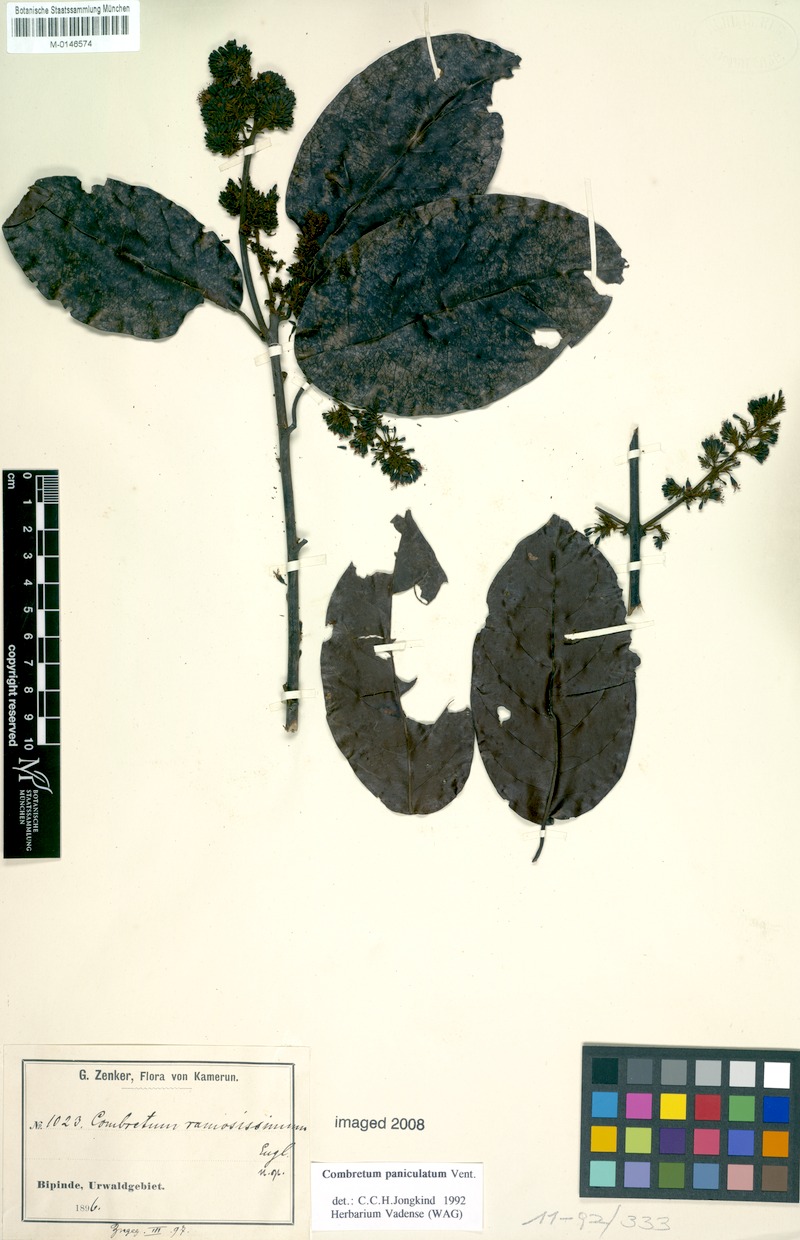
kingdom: Plantae
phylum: Tracheophyta
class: Magnoliopsida
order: Myrtales
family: Combretaceae
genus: Combretum
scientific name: Combretum paniculatum
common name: Fire vine
